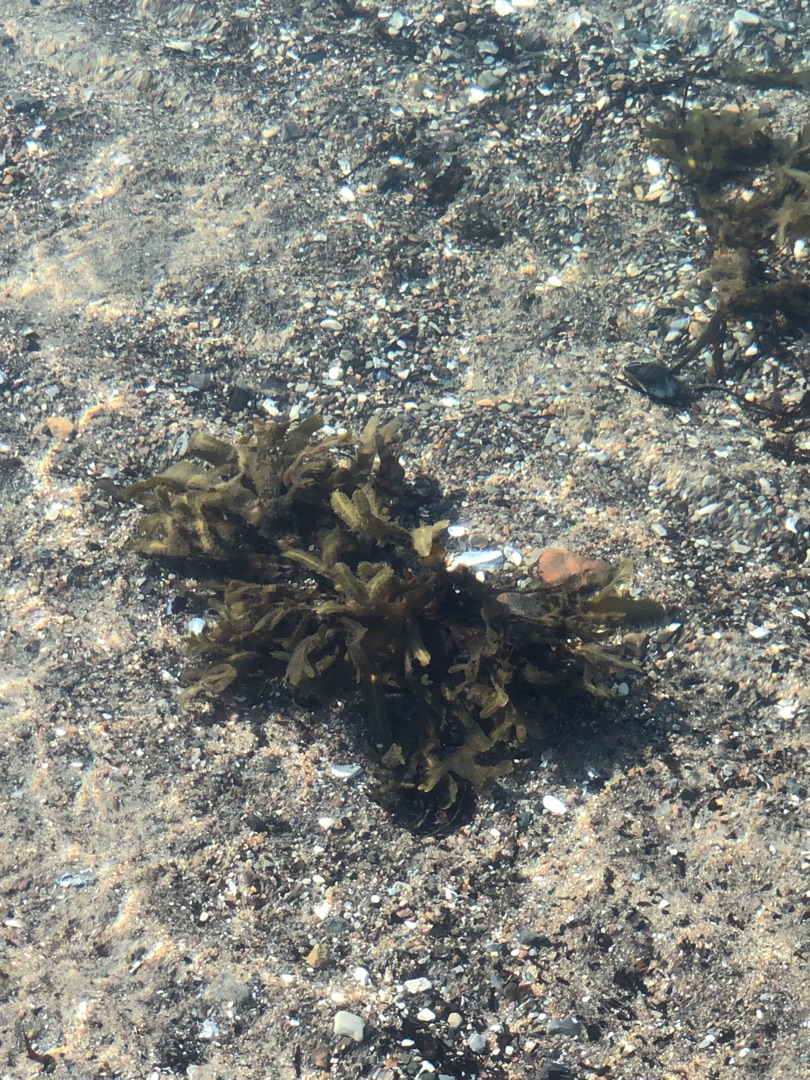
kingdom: Plantae
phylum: Rhodophyta
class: Florideophyceae
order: Gigartinales
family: Gigartinaceae
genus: Chondrus
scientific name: Chondrus crispus
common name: Carrageentang
